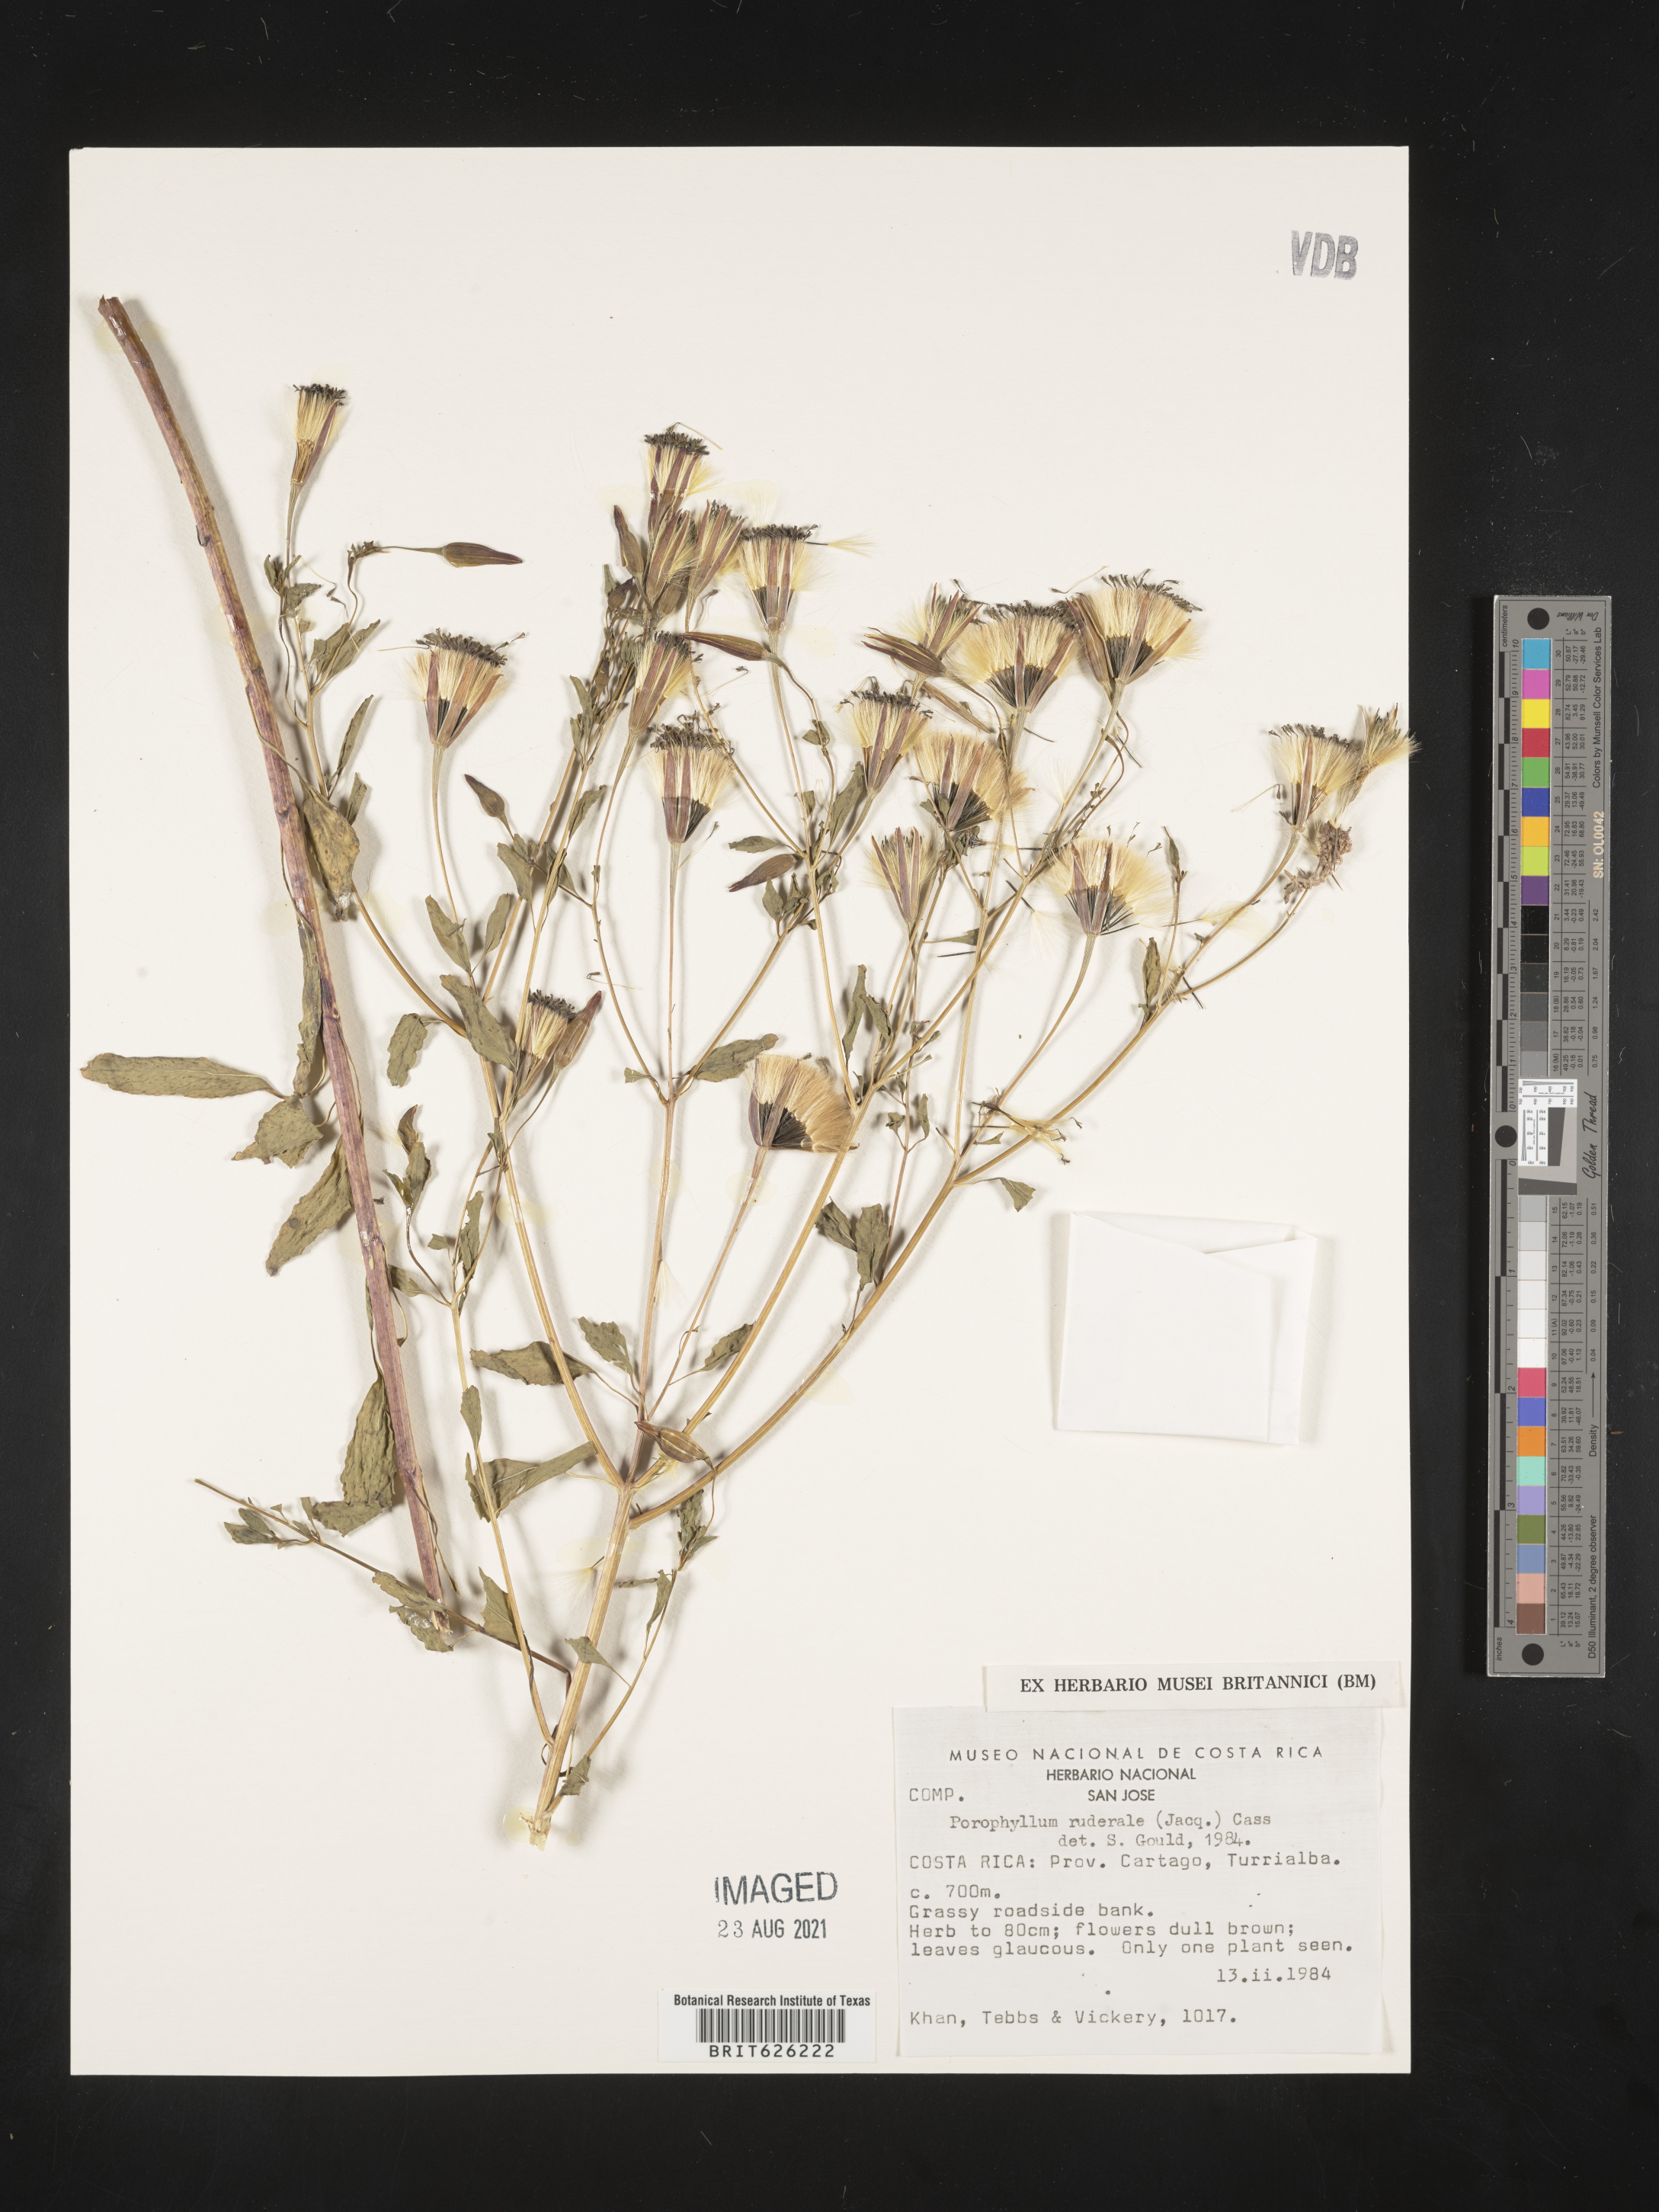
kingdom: Plantae
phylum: Tracheophyta
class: Magnoliopsida
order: Asterales
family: Asteraceae
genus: Porophyllum
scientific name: Porophyllum ruderale
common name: Yerba porosa
